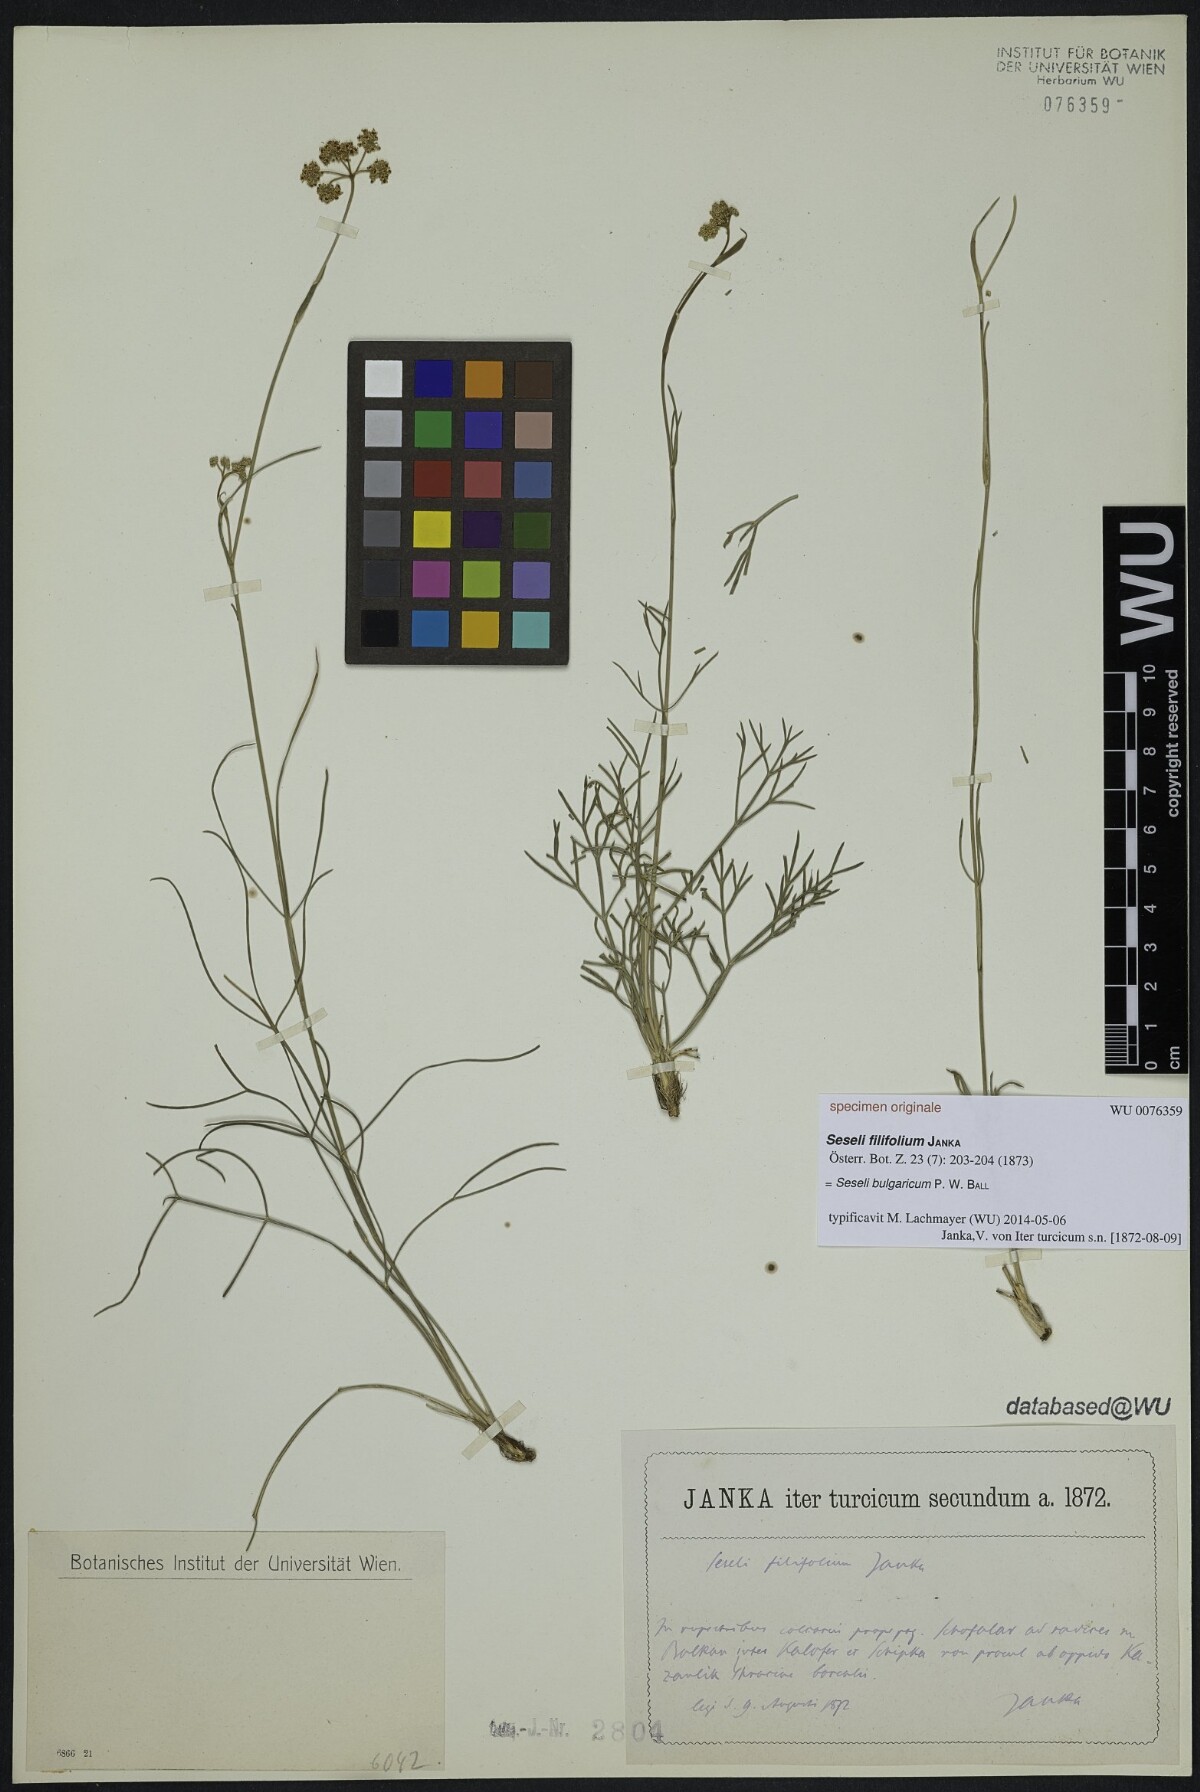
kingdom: Plantae
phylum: Tracheophyta
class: Magnoliopsida
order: Apiales
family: Apiaceae
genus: Seseli
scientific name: Seseli bulgaricum
